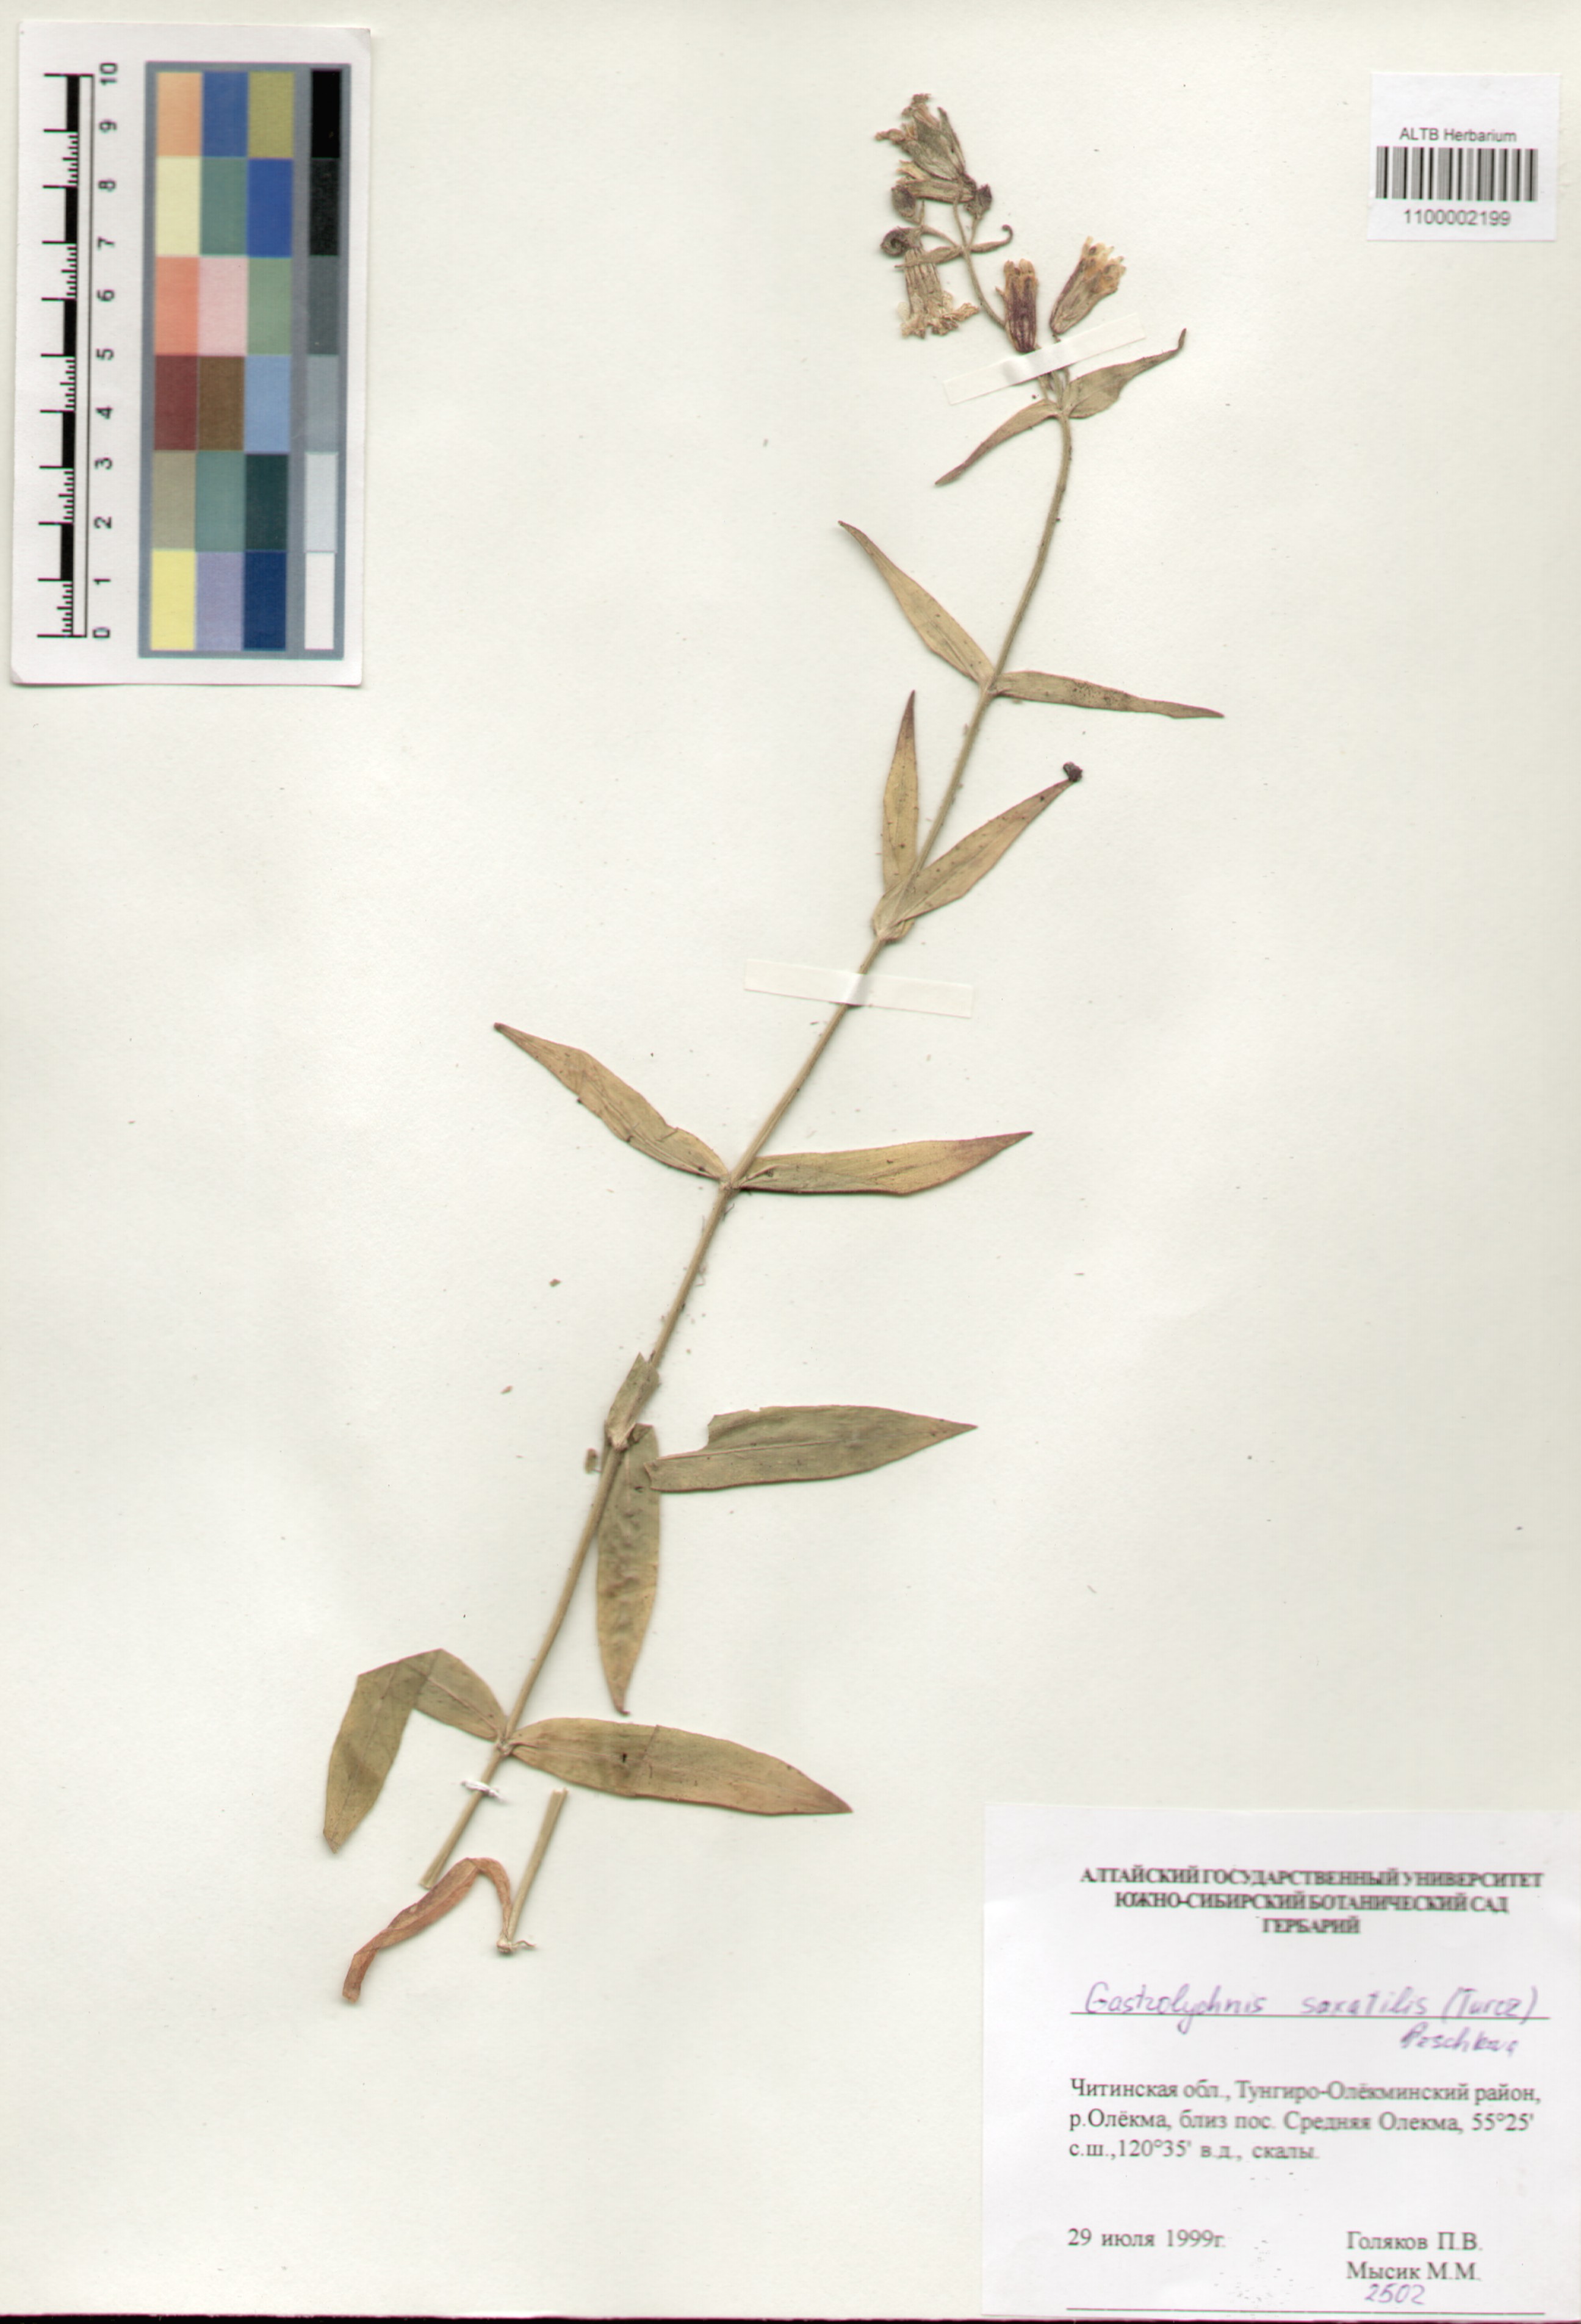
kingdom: Plantae
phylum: Tracheophyta
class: Magnoliopsida
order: Caryophyllales
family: Caryophyllaceae
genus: Silene
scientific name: Silene tolmatchevii
